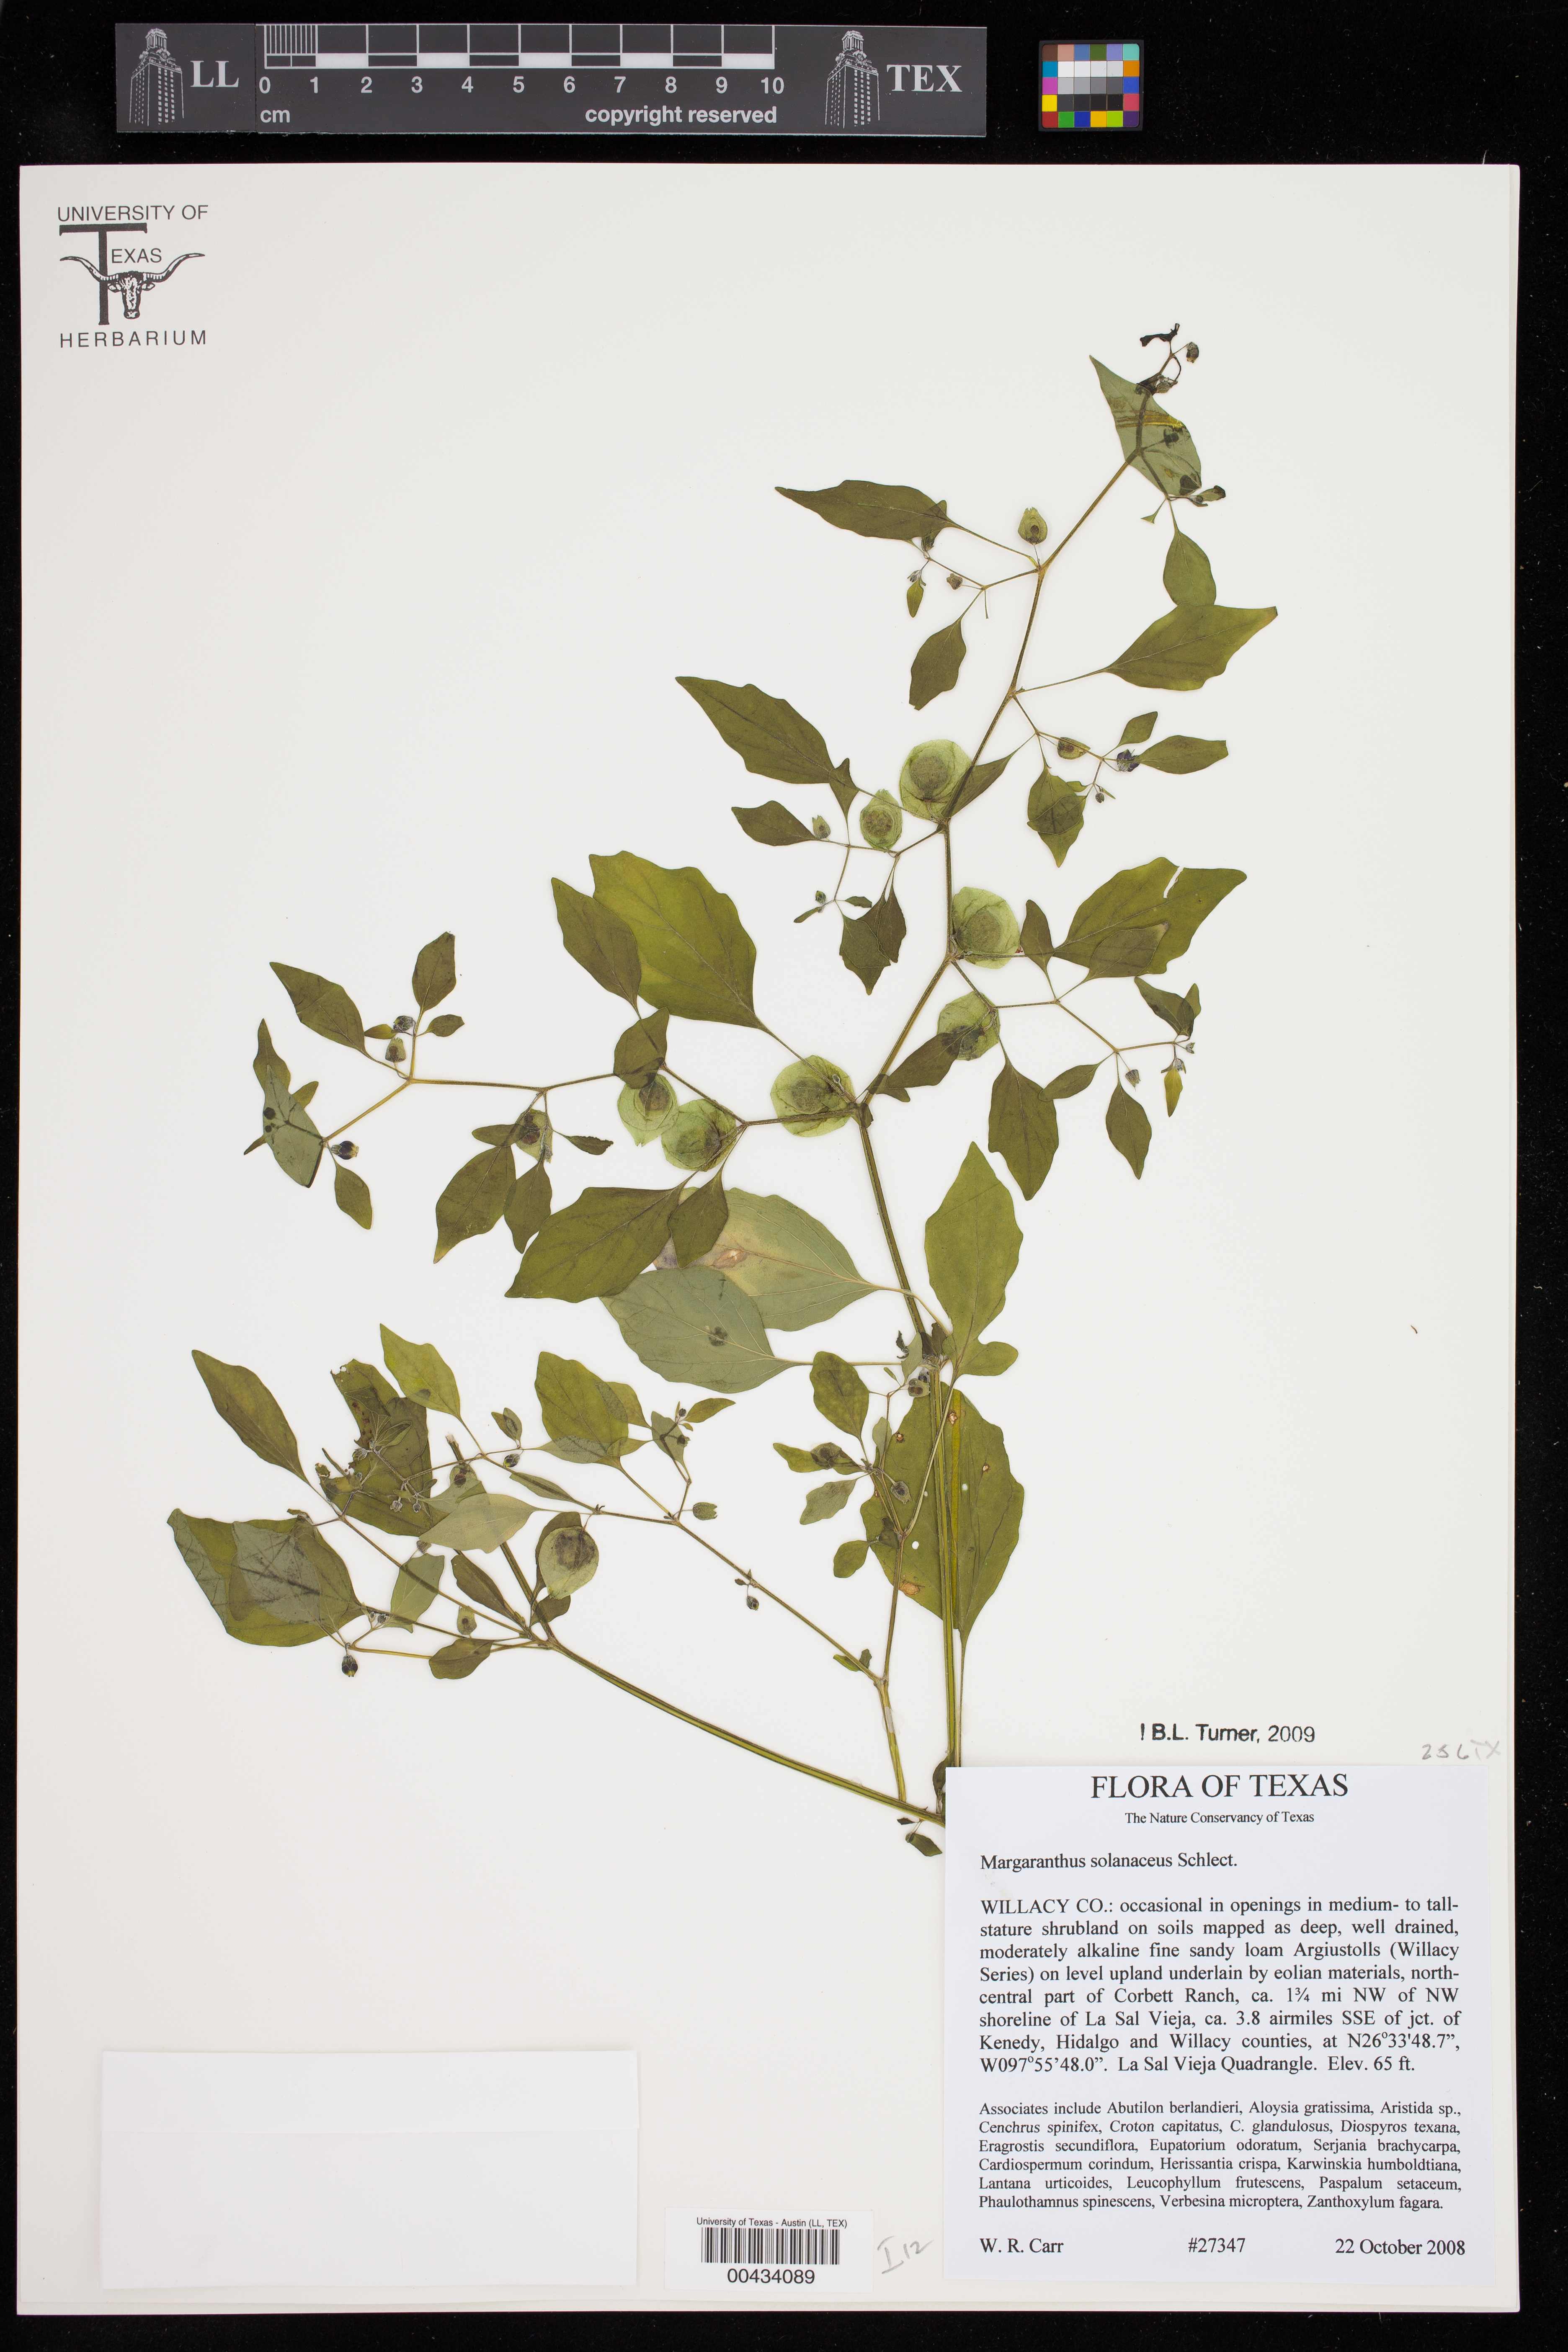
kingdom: Plantae
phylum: Tracheophyta
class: Magnoliopsida
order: Solanales
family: Solanaceae
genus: Physalis
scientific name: Physalis solanacea
